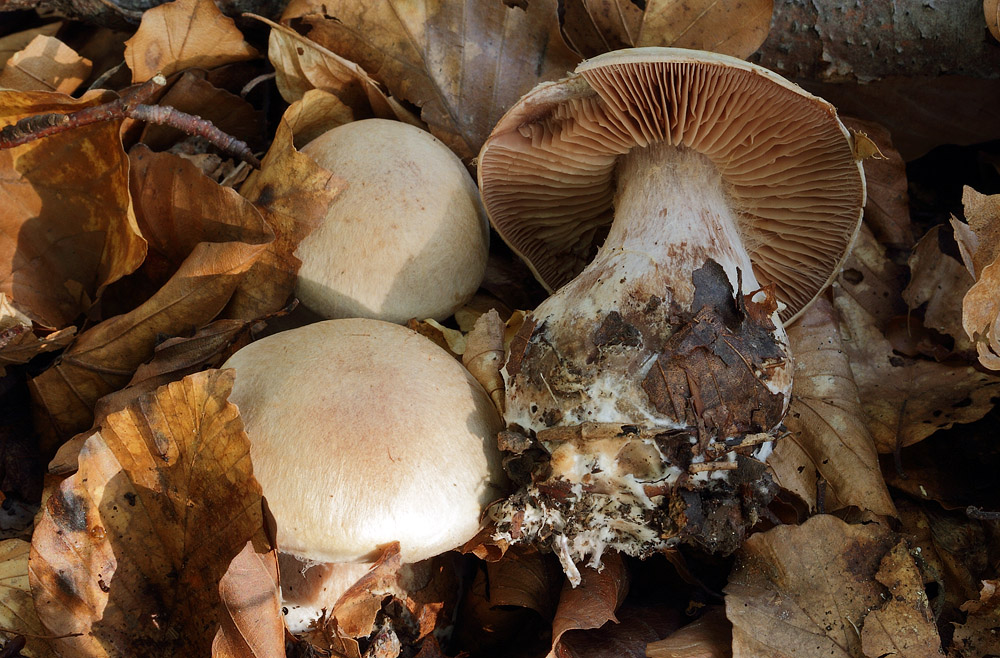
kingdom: Fungi
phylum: Basidiomycota
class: Agaricomycetes
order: Agaricales
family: Cortinariaceae
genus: Cortinarius
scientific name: Cortinarius
